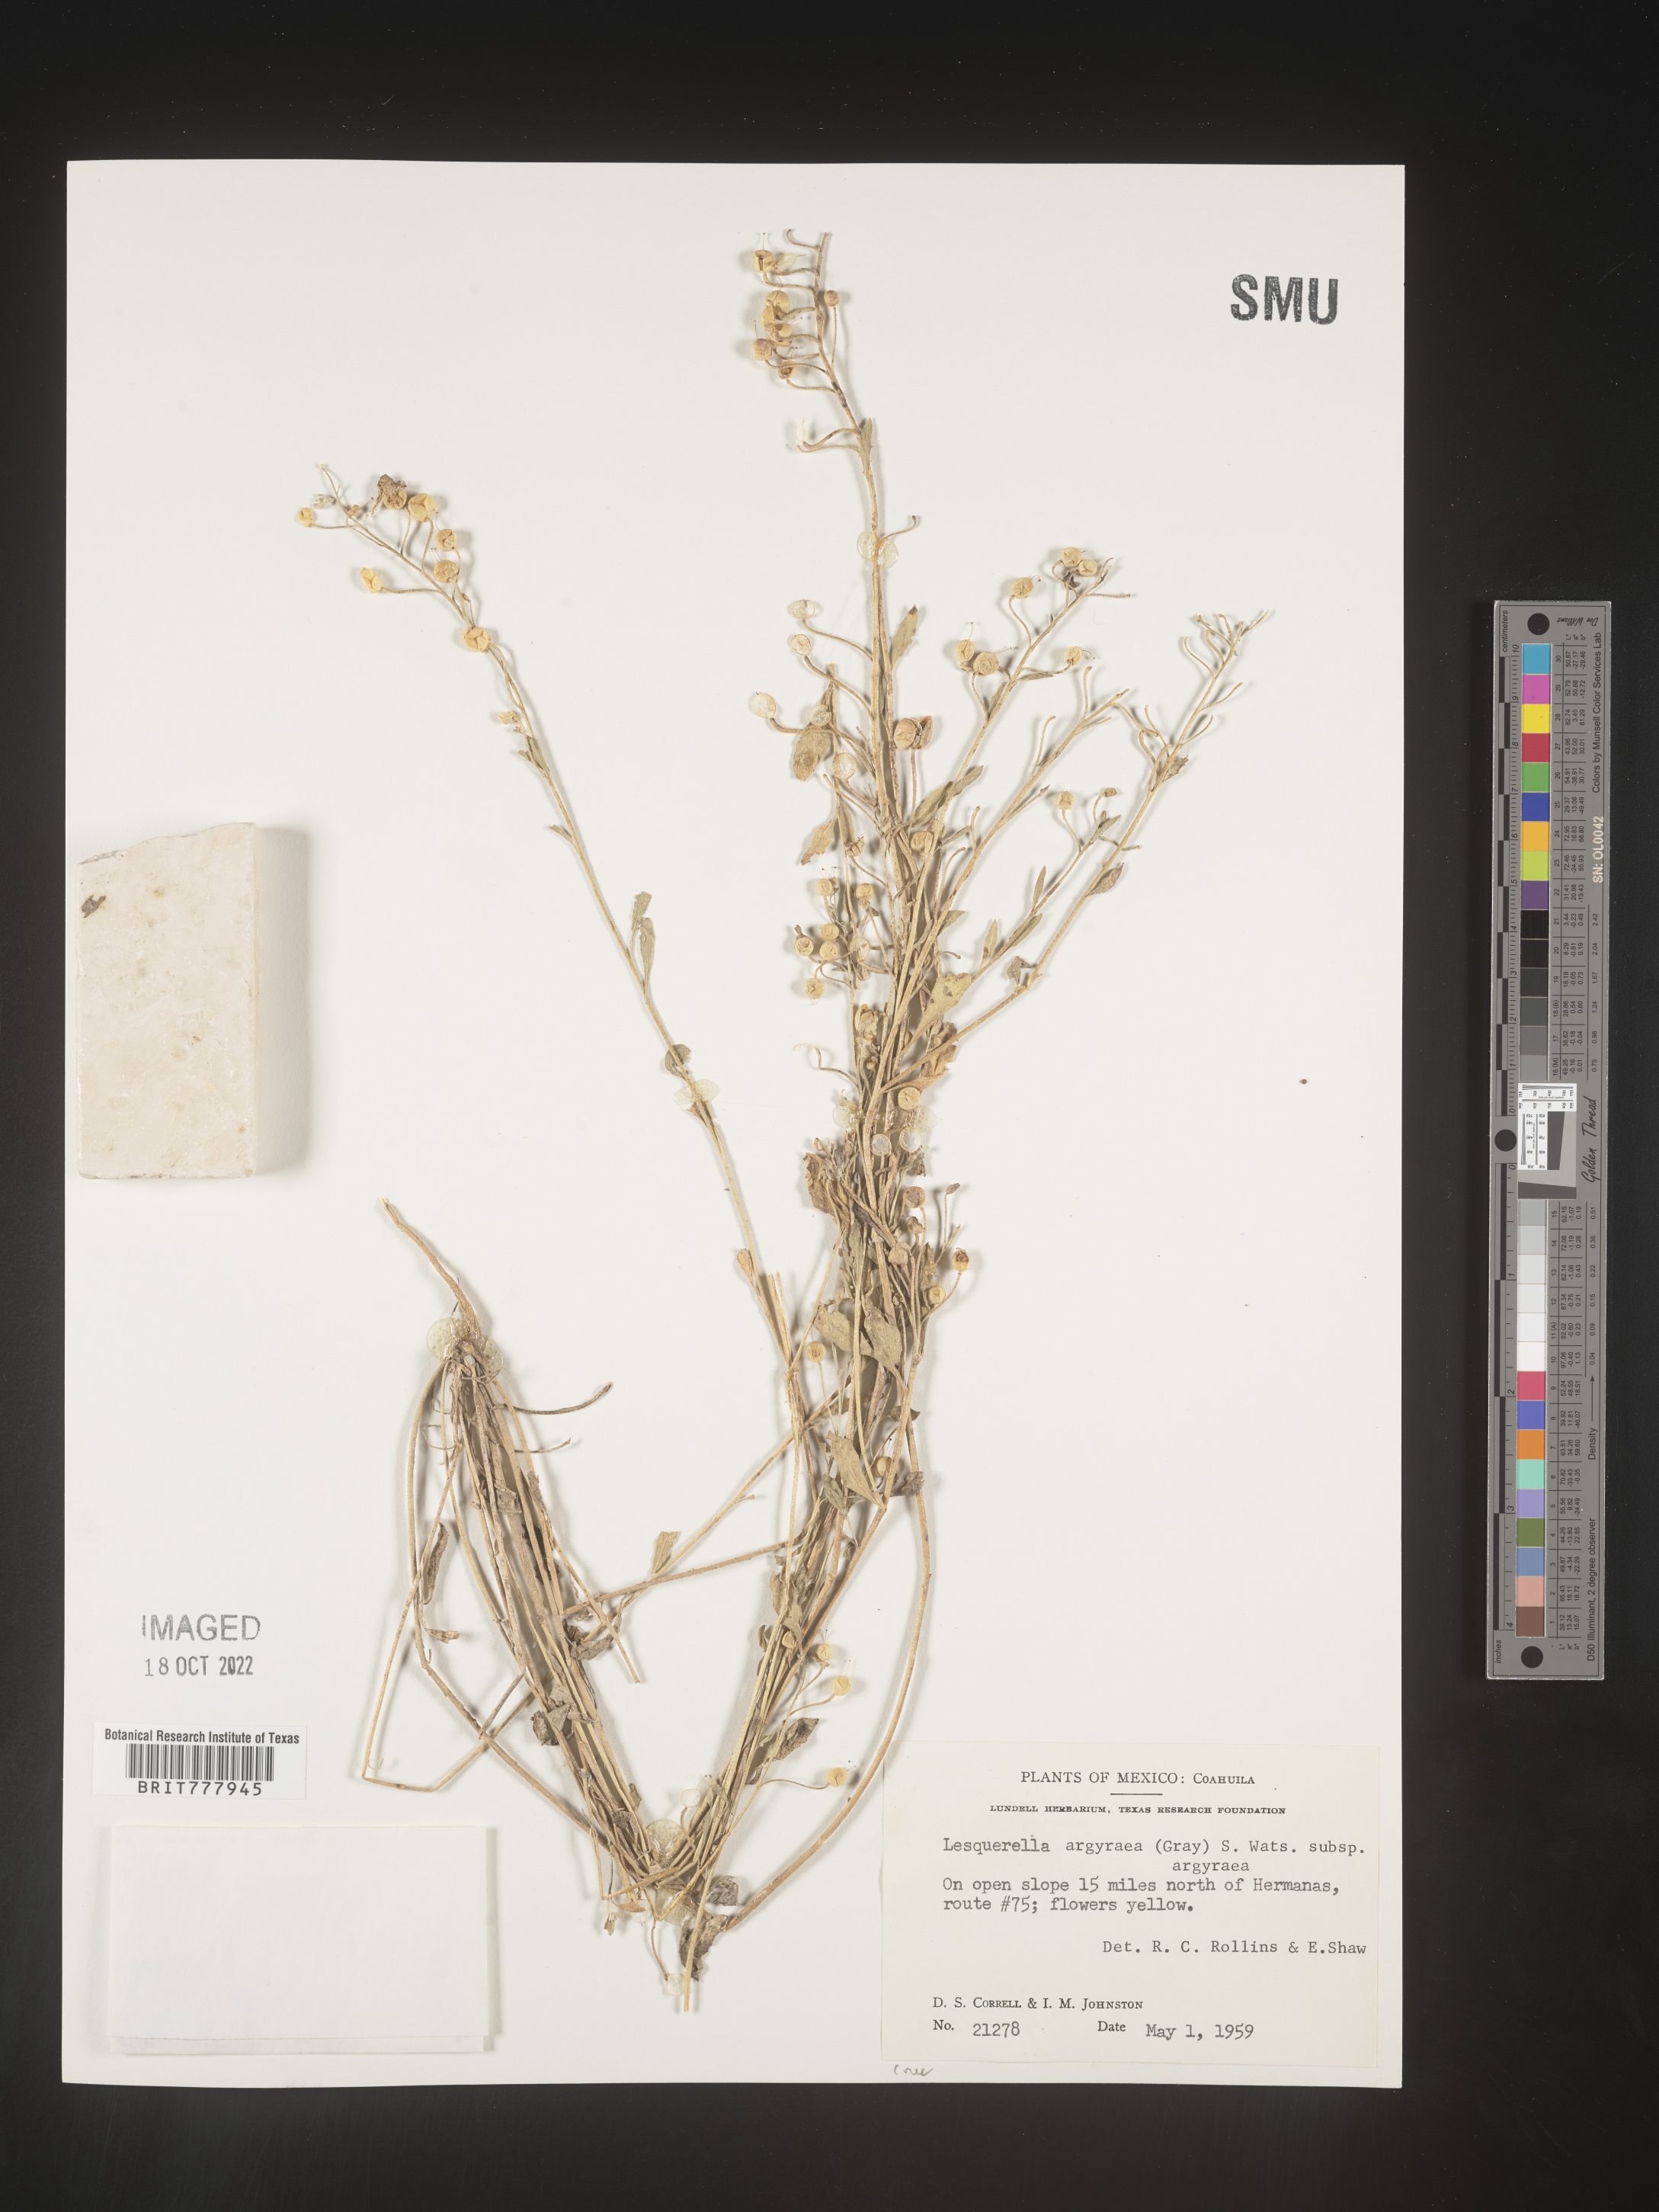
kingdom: Chromista
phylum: Cercozoa
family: Psammonobiotidae
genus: Lesquerella
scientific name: Lesquerella
